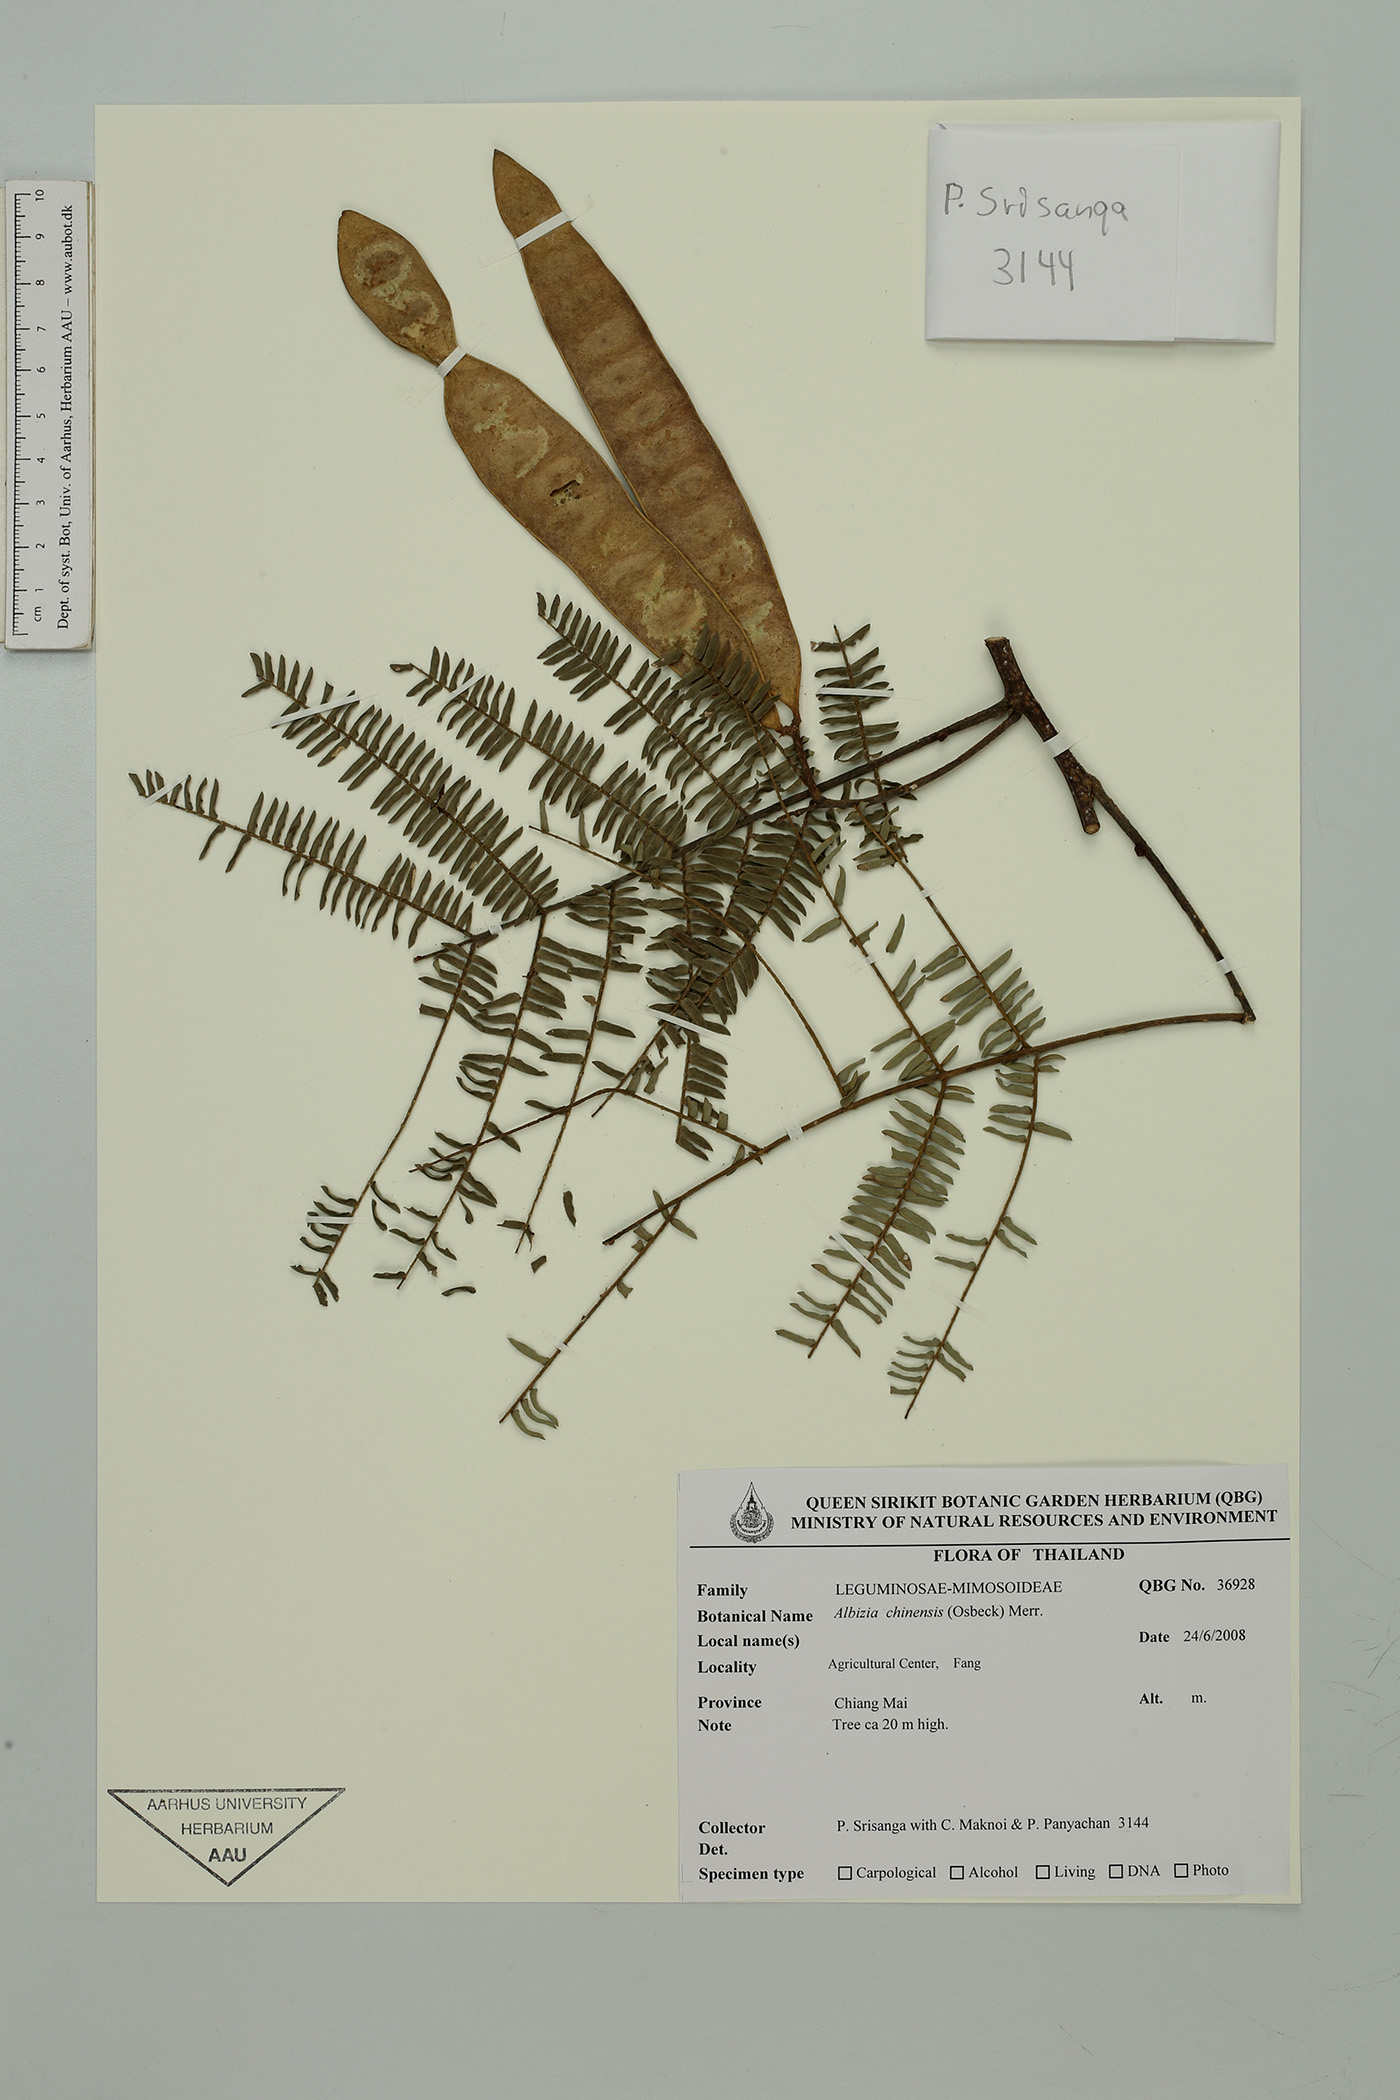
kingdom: Plantae
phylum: Tracheophyta
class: Magnoliopsida
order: Fabales
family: Fabaceae
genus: Albizia
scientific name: Albizia chinensis
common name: Chinese albizia
